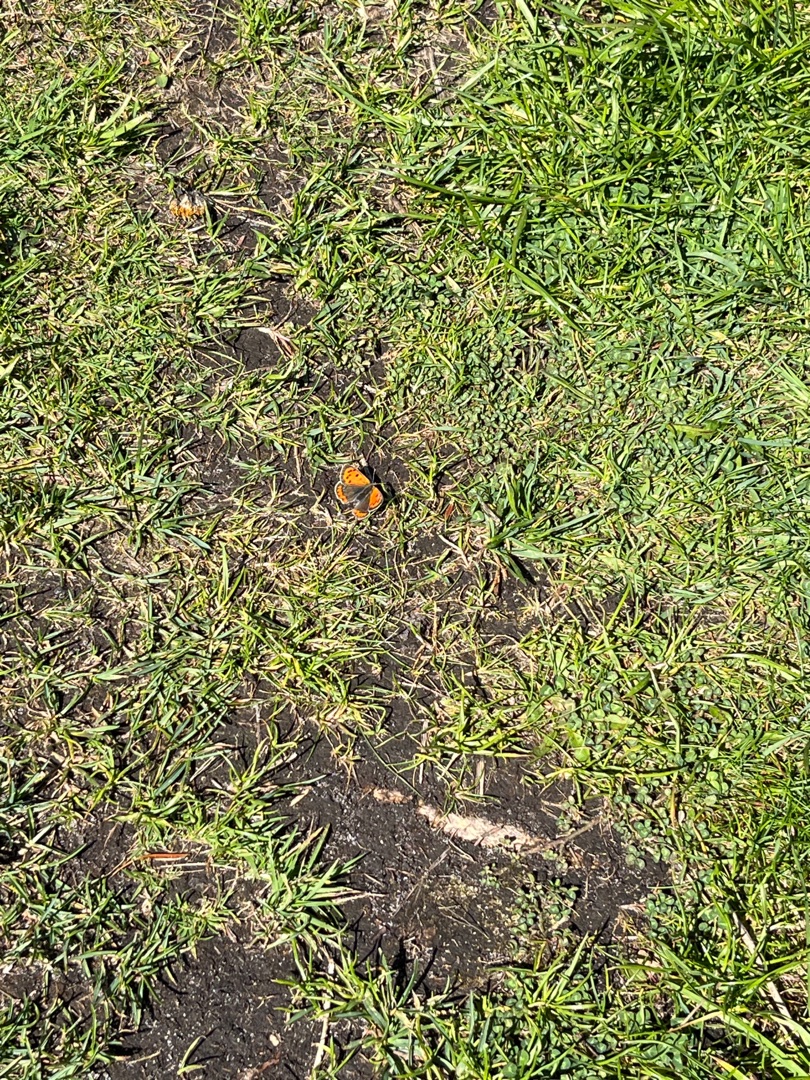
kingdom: Animalia
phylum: Arthropoda
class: Insecta
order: Lepidoptera
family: Lycaenidae
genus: Lycaena
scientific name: Lycaena phlaeas
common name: Lille ildfugl
